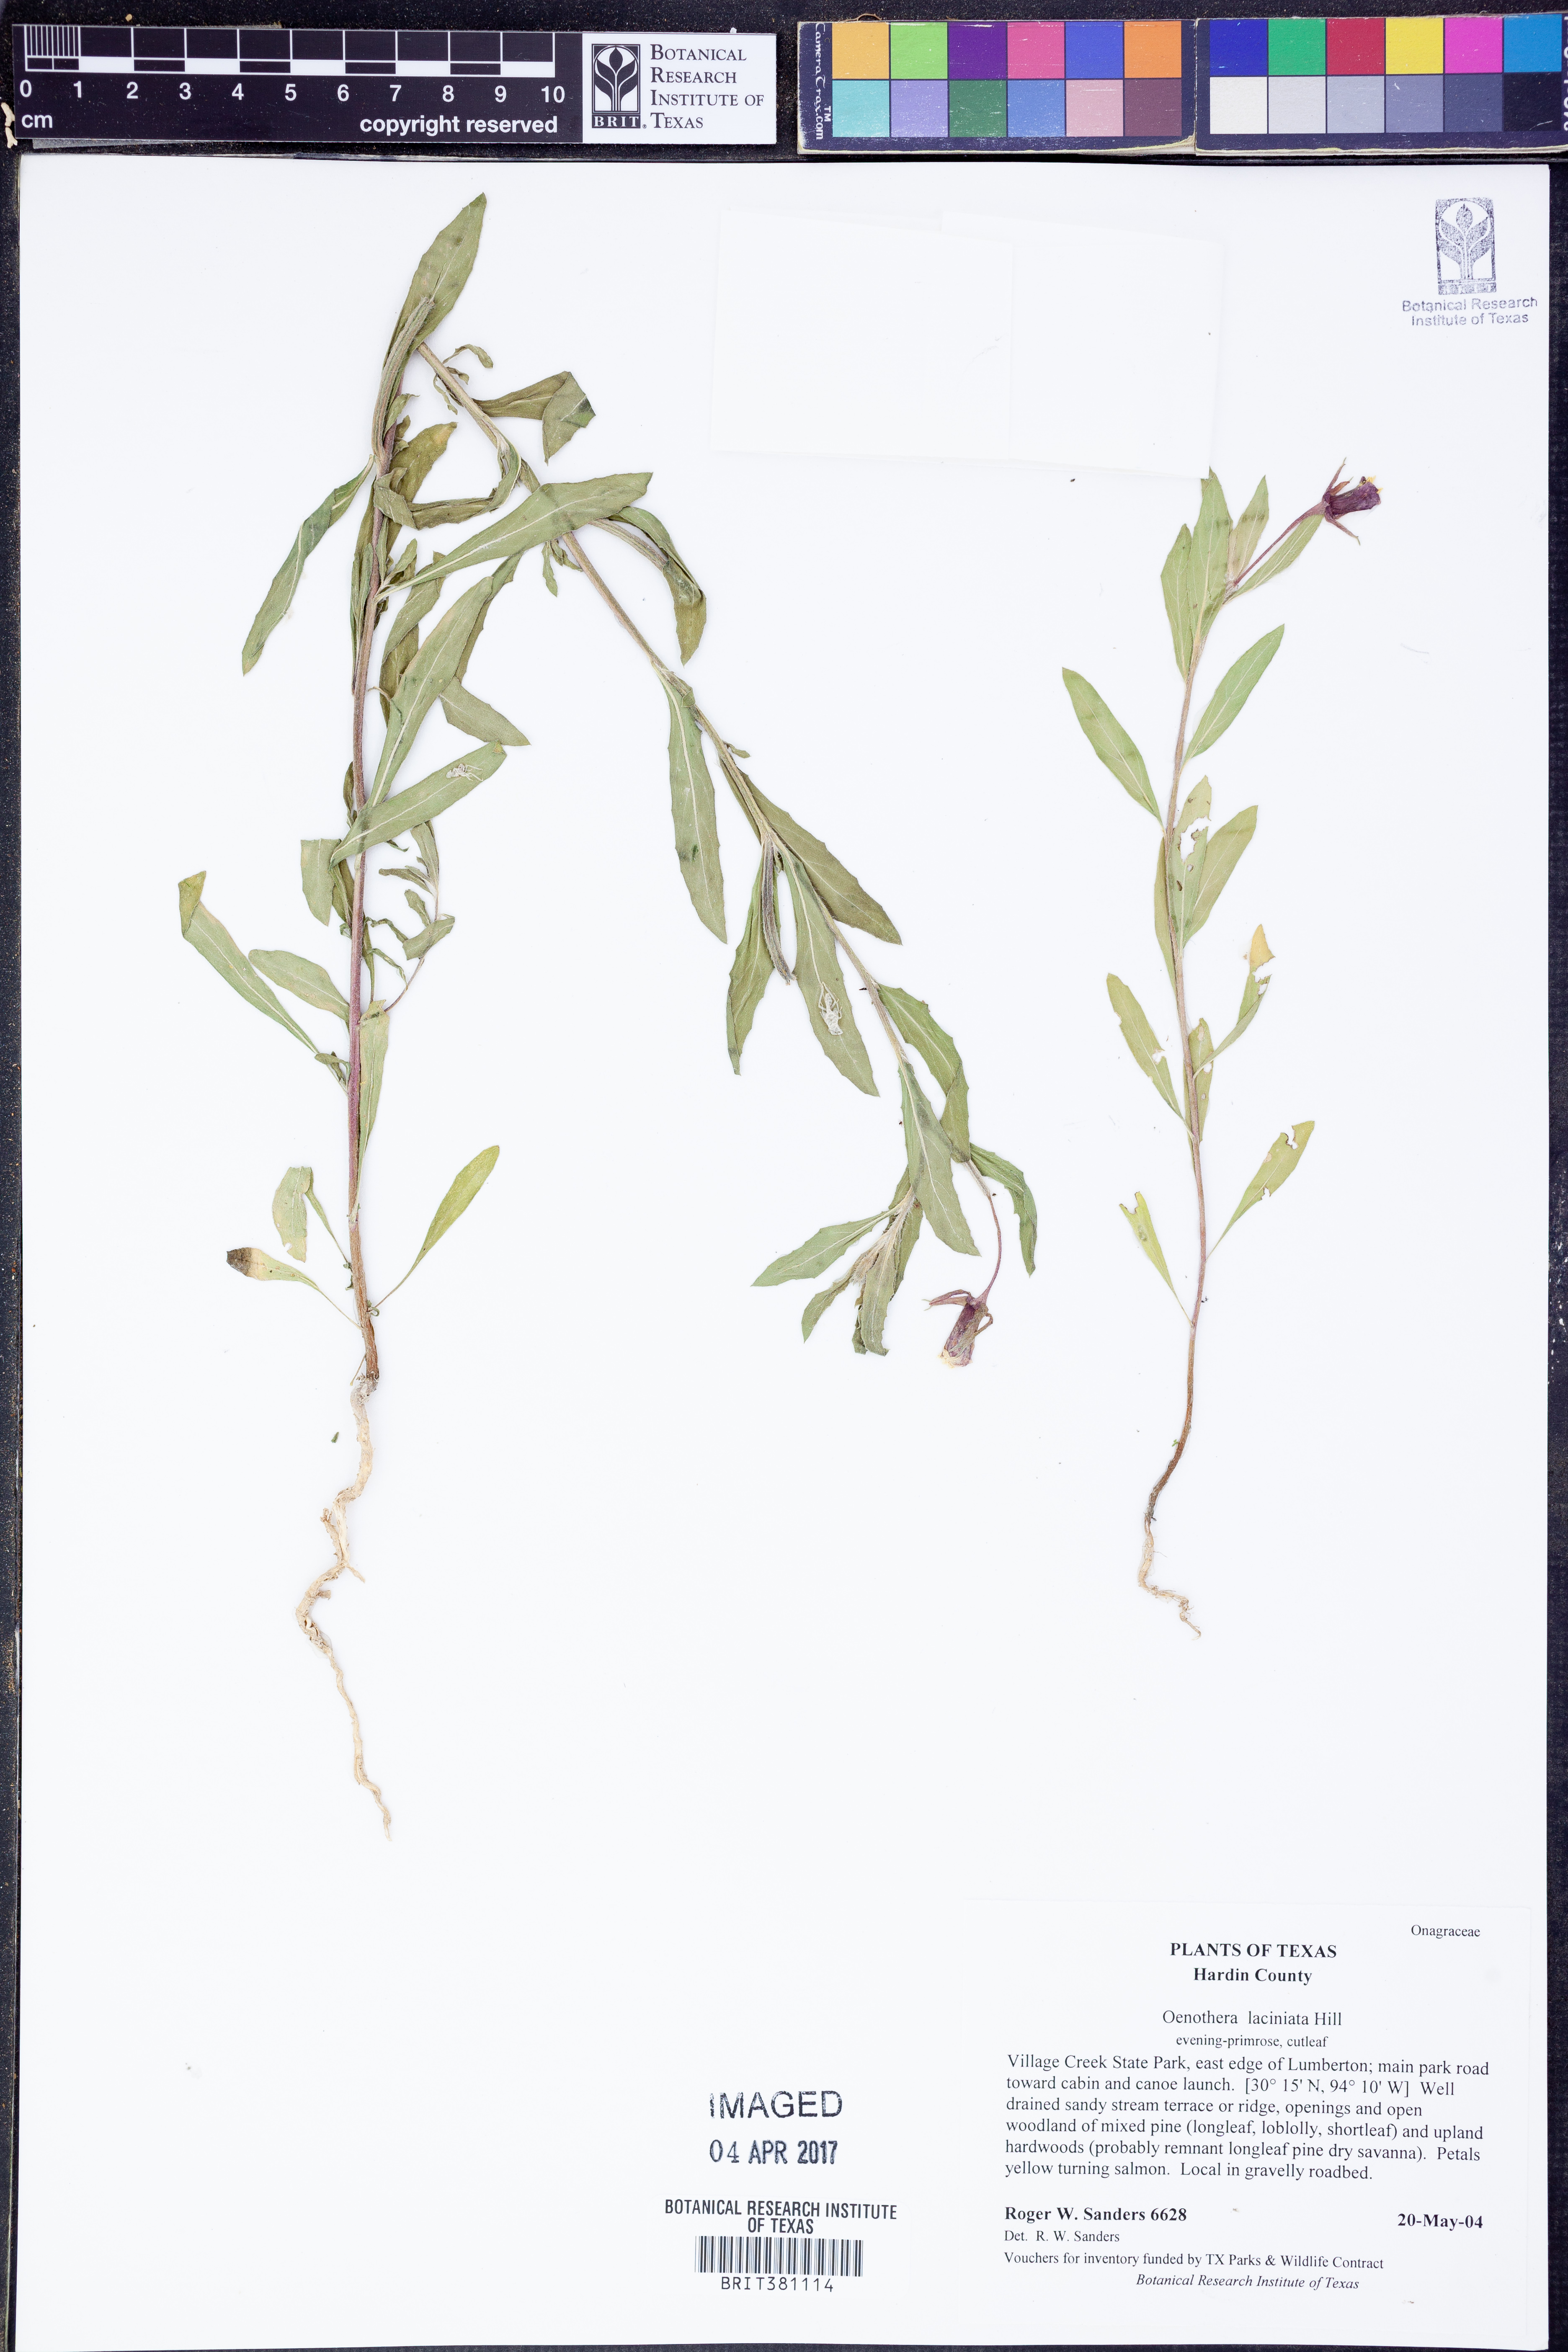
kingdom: Plantae
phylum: Tracheophyta
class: Magnoliopsida
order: Myrtales
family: Onagraceae
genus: Oenothera
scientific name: Oenothera laciniata
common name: Cut-leaved evening-primrose
